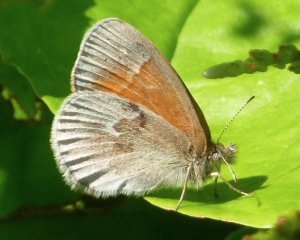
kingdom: Animalia
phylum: Arthropoda
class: Insecta
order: Lepidoptera
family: Nymphalidae
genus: Coenonympha
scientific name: Coenonympha tullia
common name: Large Heath
